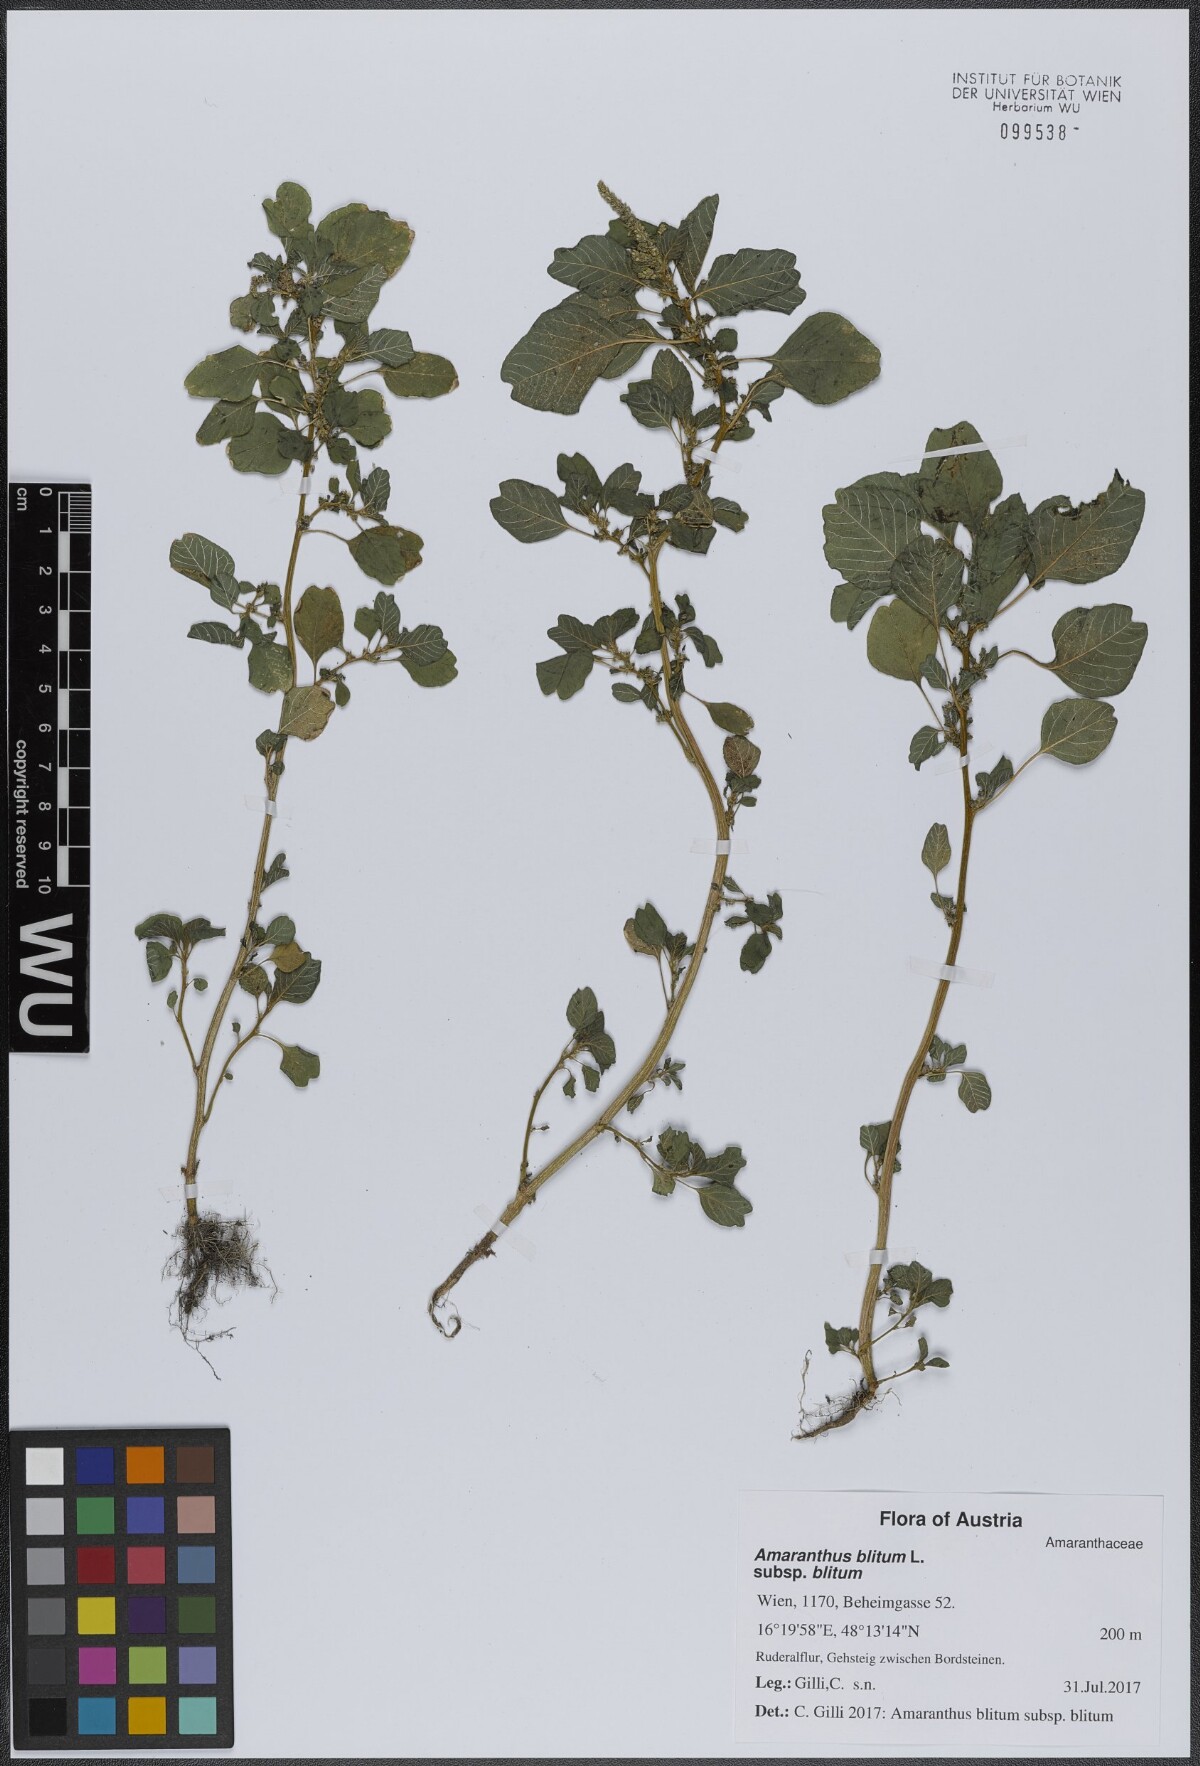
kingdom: Plantae
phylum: Tracheophyta
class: Magnoliopsida
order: Caryophyllales
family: Amaranthaceae
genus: Amaranthus
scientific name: Amaranthus blitum
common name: Purple amaranth
